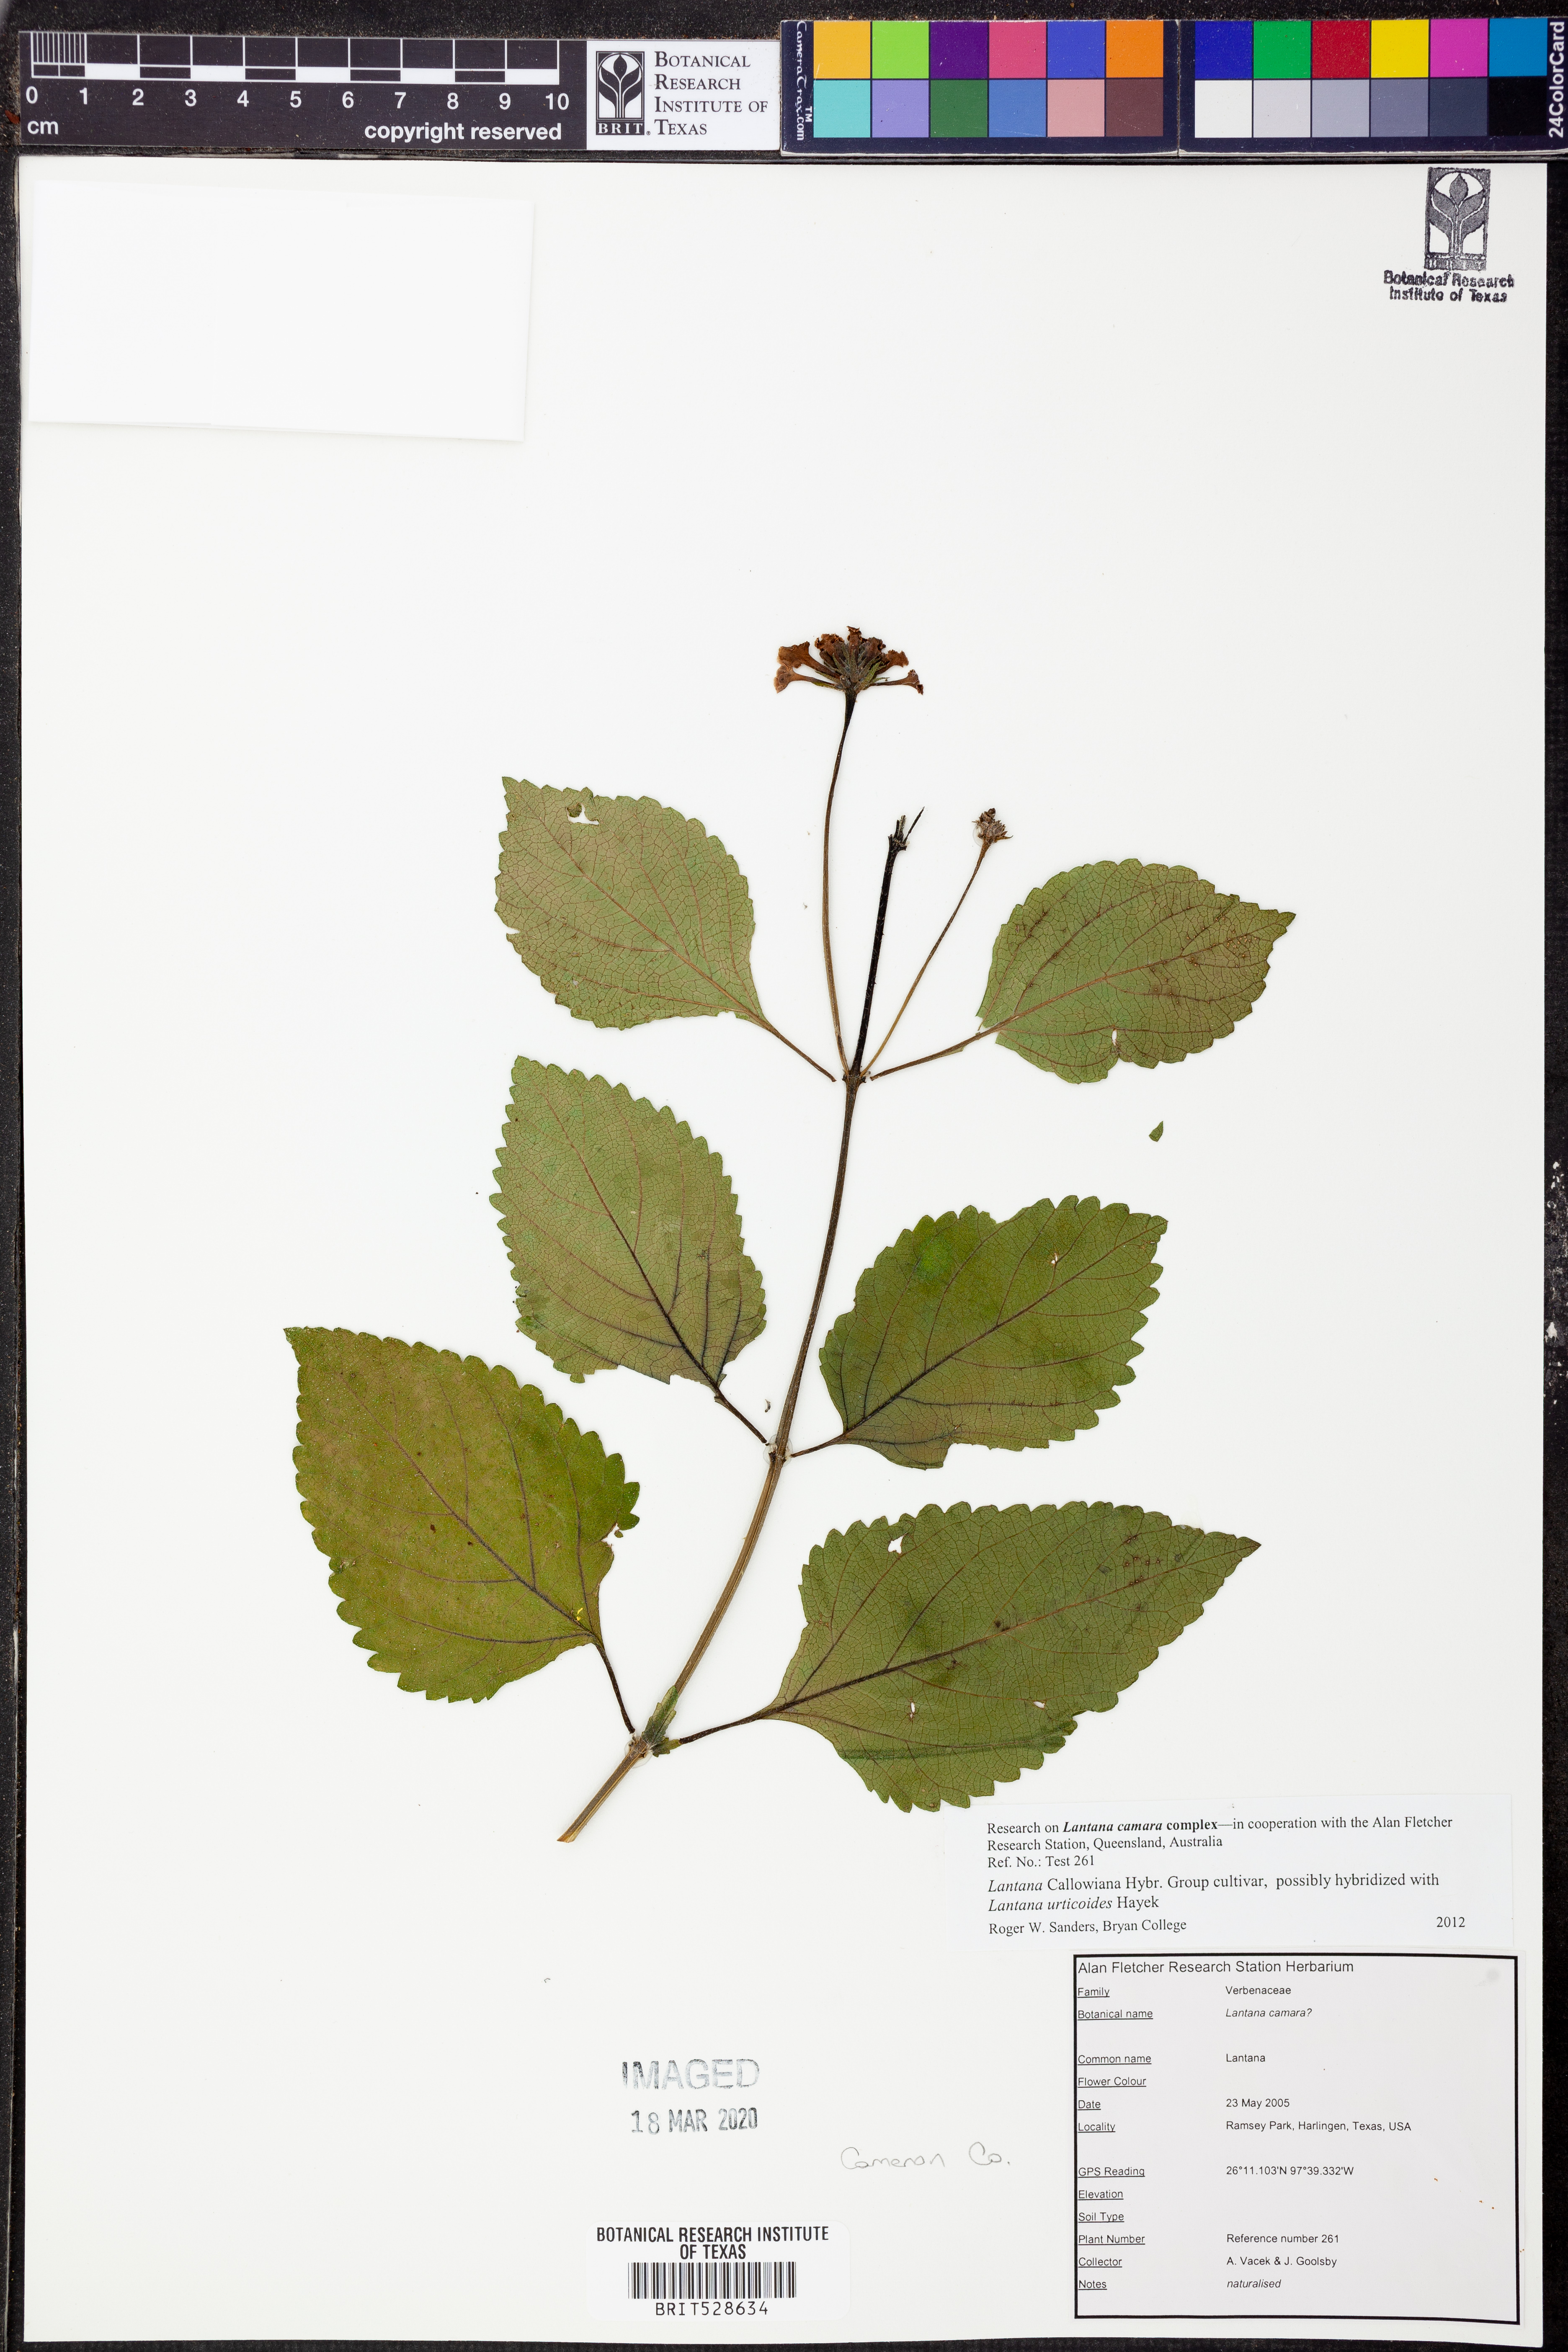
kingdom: Plantae
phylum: Tracheophyta
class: Magnoliopsida
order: Lamiales
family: Verbenaceae
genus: Lantana
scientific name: Lantana
